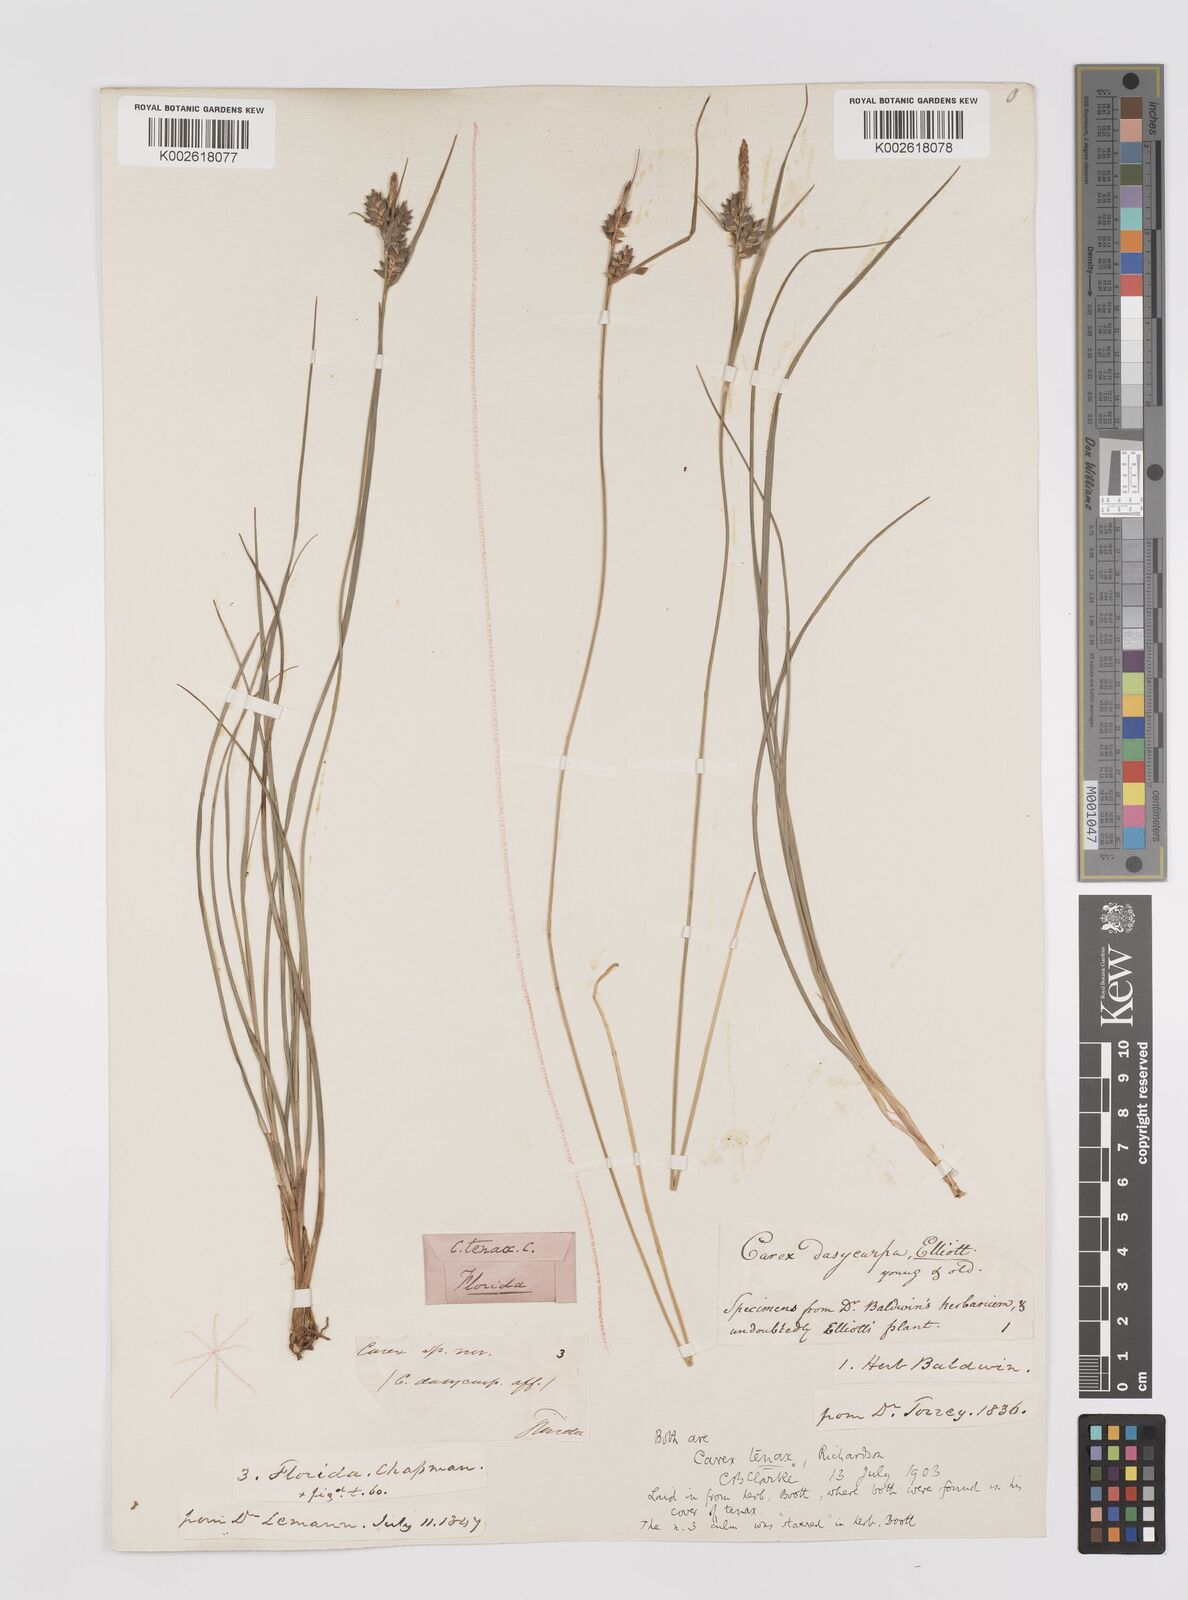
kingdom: Plantae
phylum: Tracheophyta
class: Liliopsida
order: Poales
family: Cyperaceae
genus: Carex
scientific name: Carex tenax
